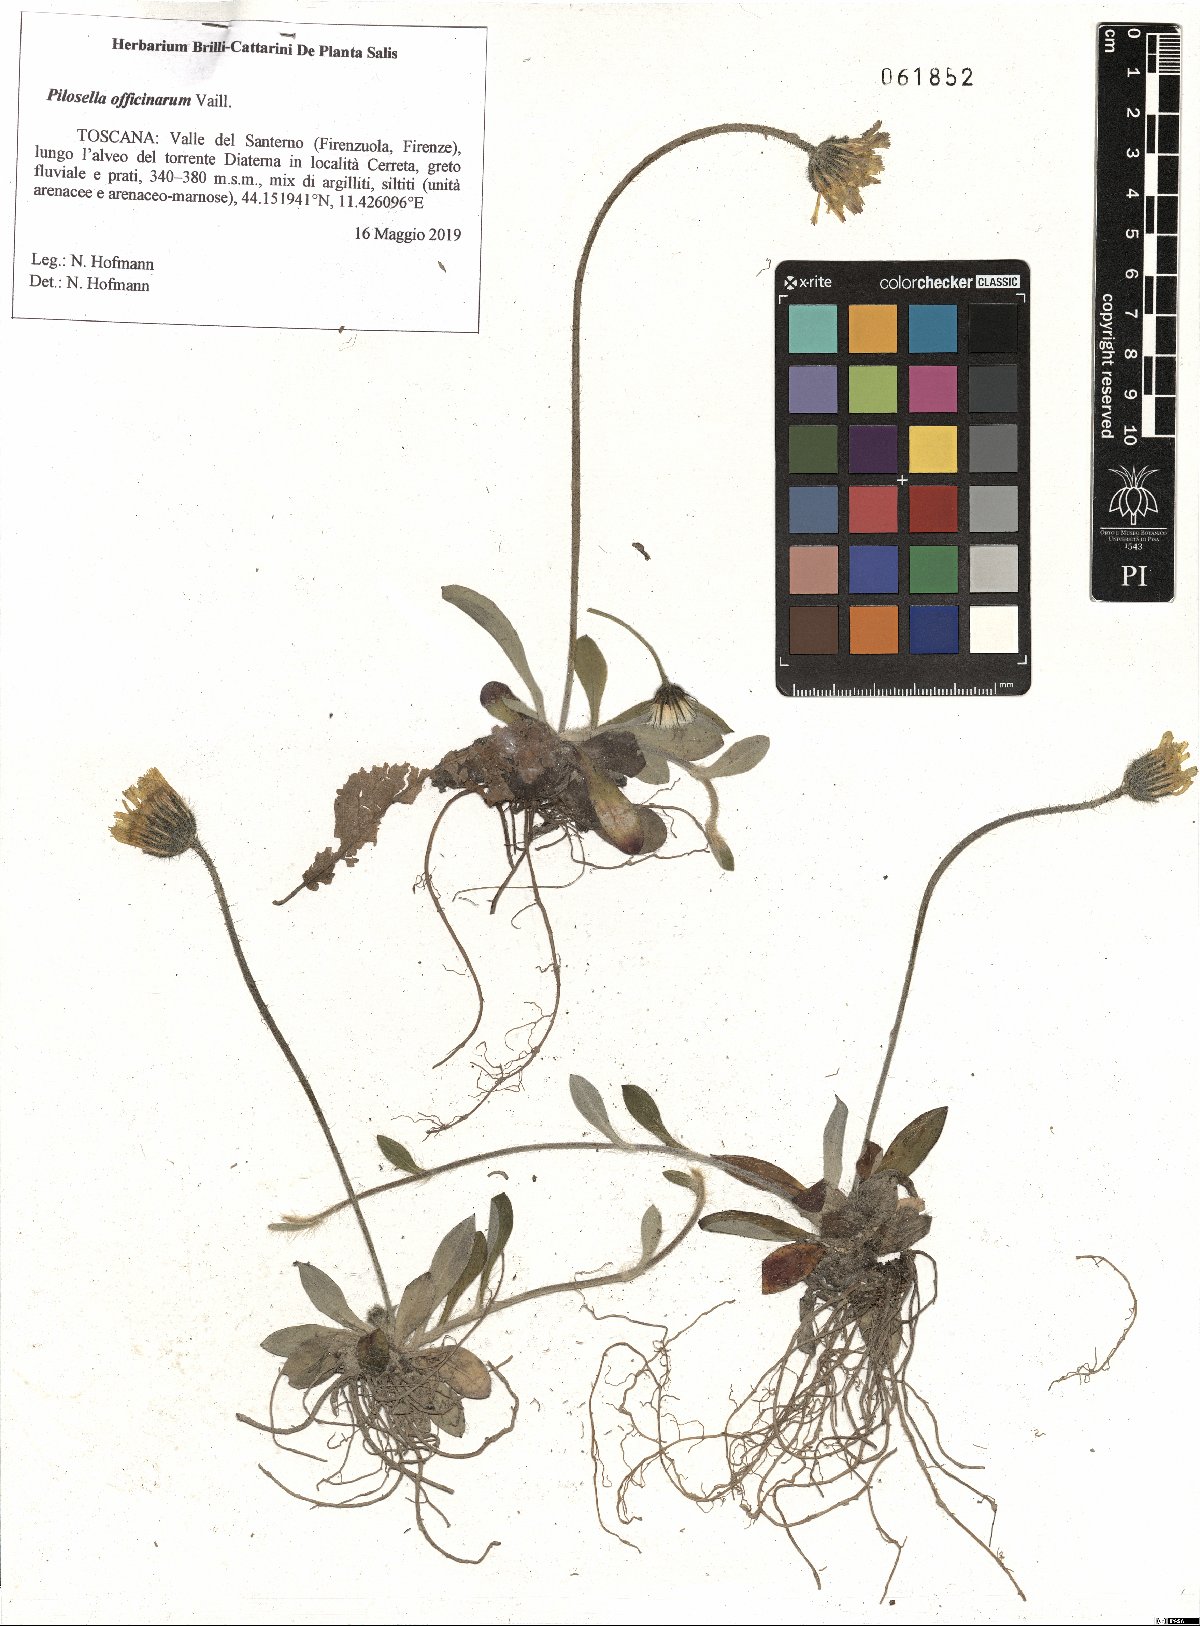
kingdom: Plantae
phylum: Tracheophyta
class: Magnoliopsida
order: Asterales
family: Asteraceae
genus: Pilosella
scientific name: Pilosella officinarum
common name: Mouse-ear hawkweed
